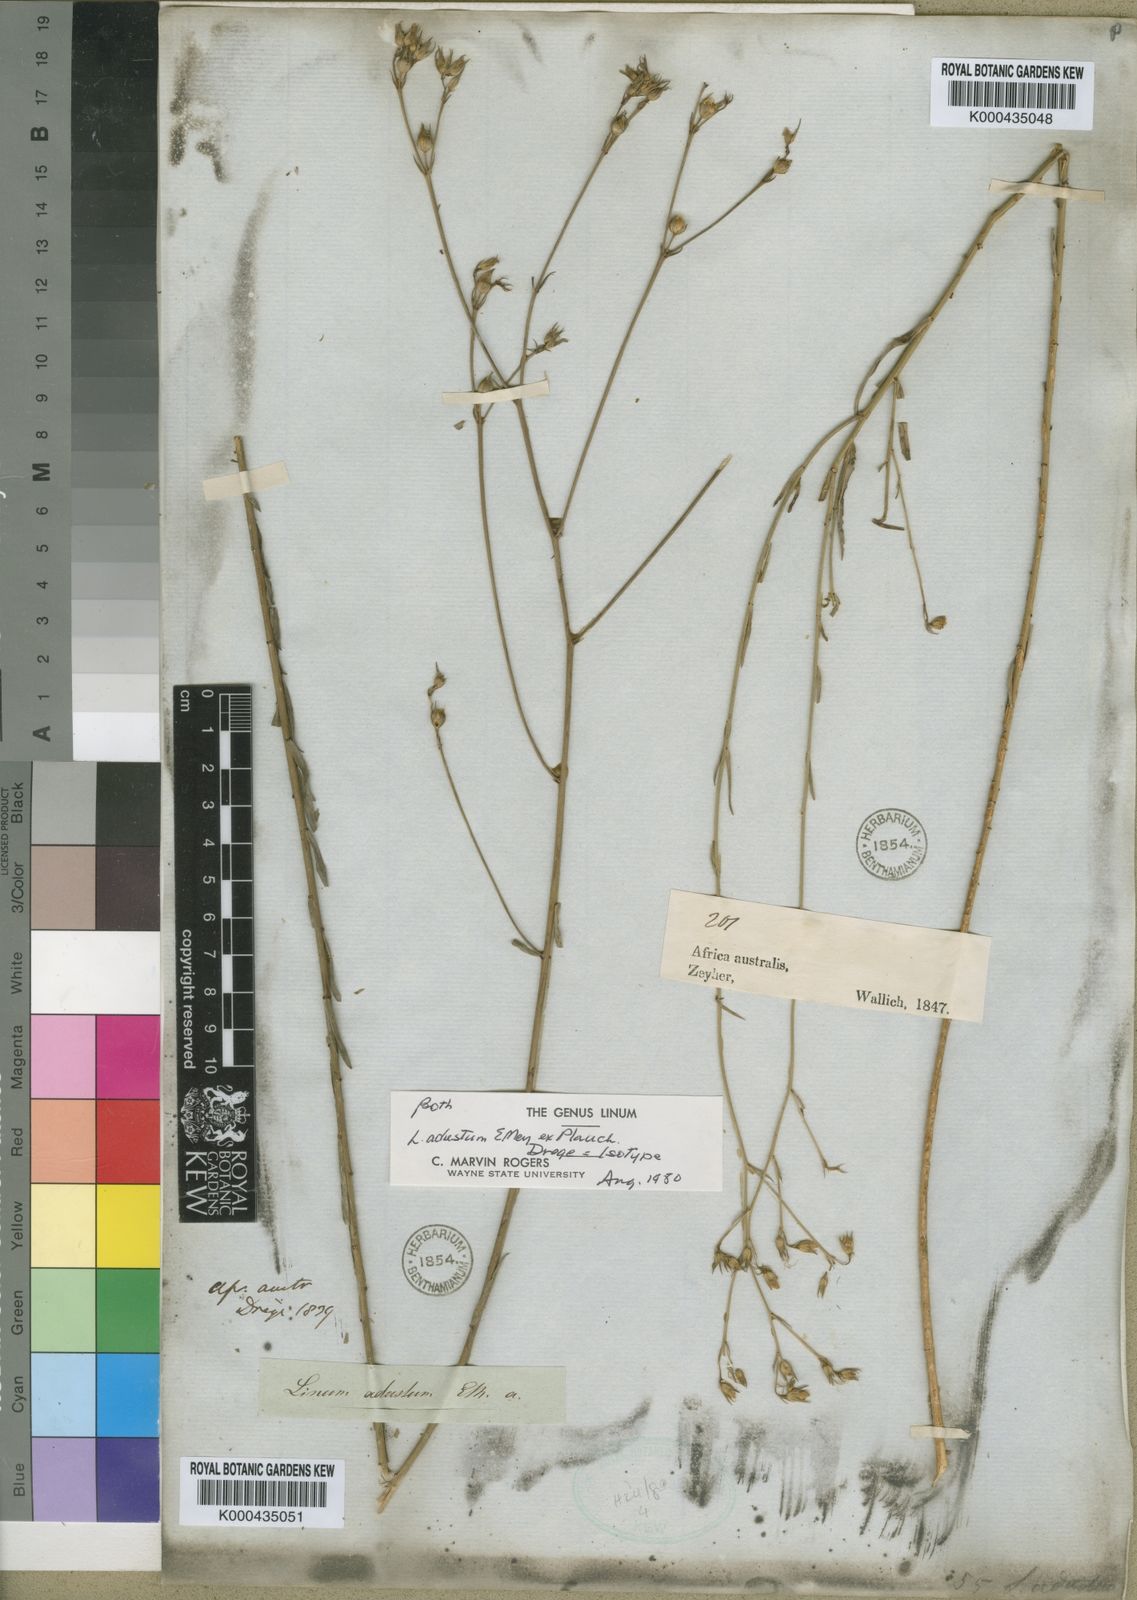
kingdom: Plantae
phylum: Tracheophyta
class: Magnoliopsida
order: Malpighiales
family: Linaceae
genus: Linum
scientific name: Linum adustum
